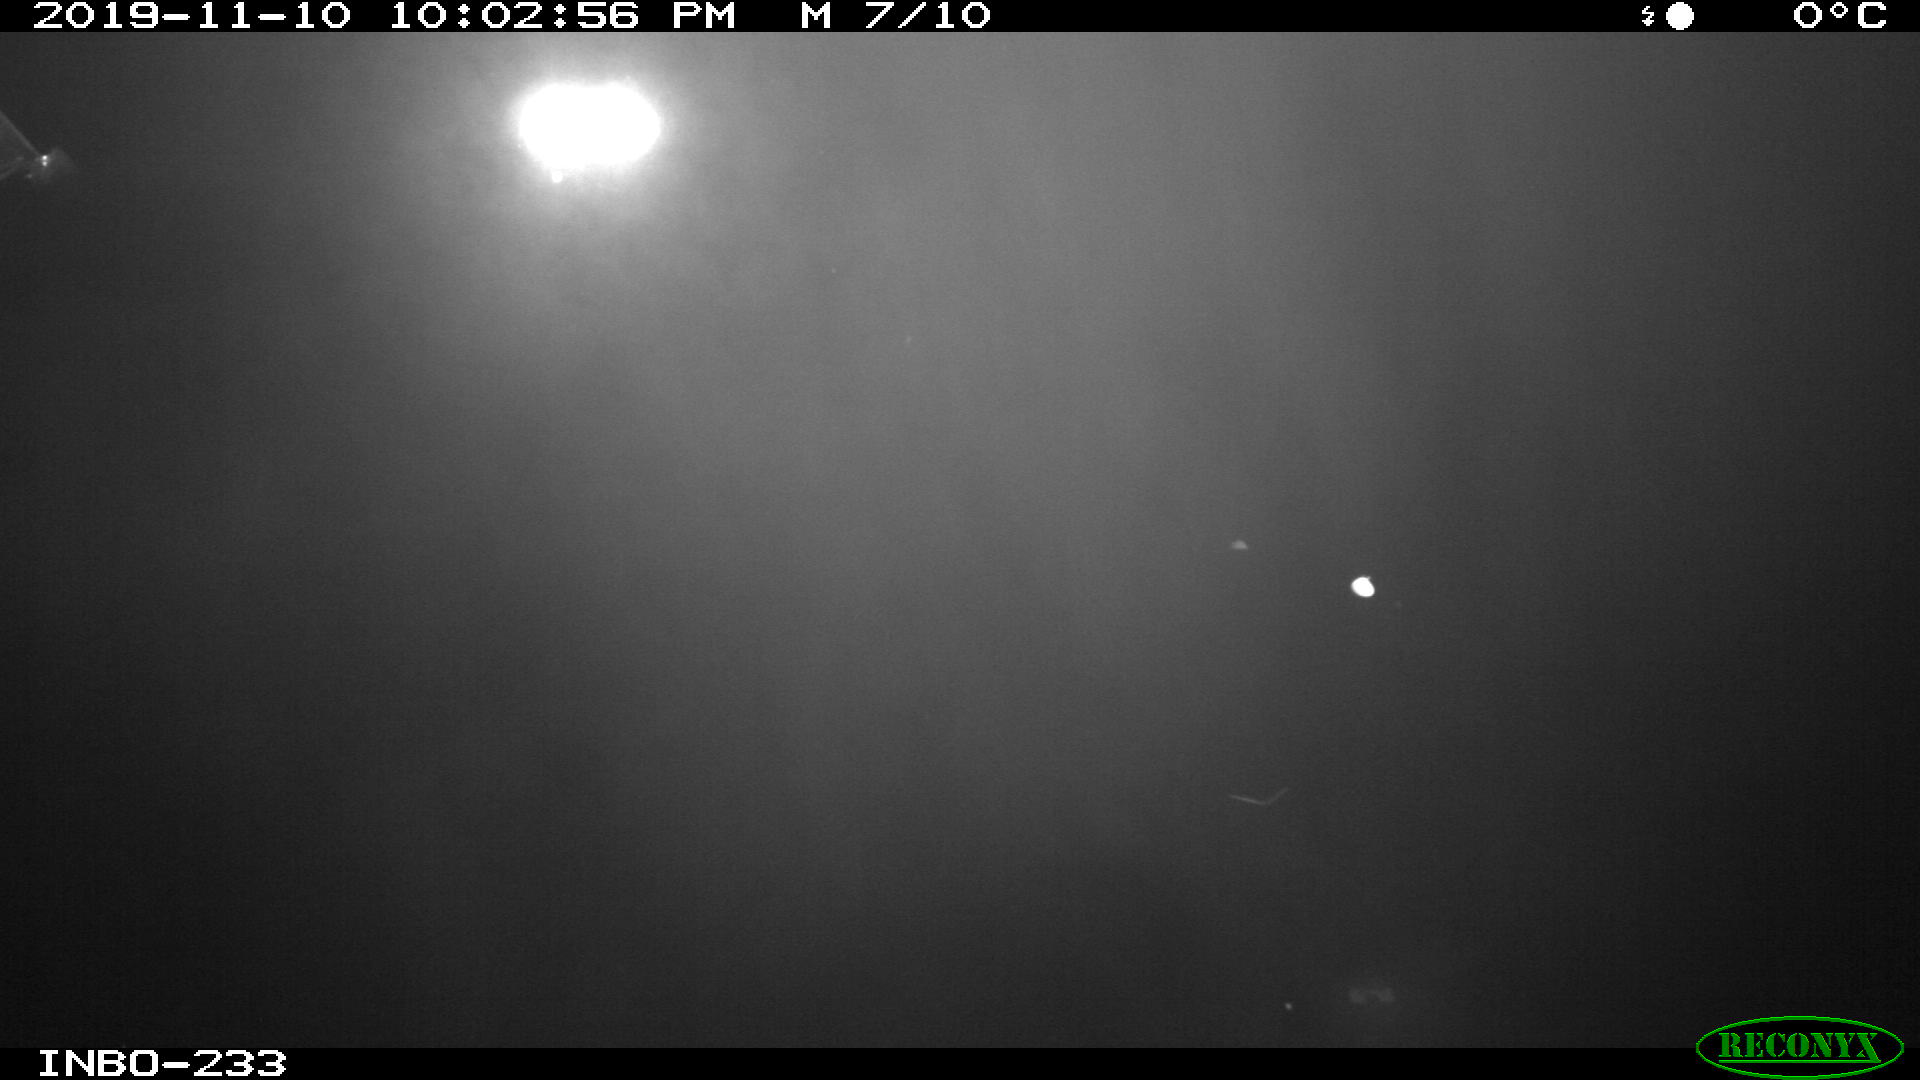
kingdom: Animalia
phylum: Chordata
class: Aves
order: Anseriformes
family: Anatidae
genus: Anas
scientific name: Anas platyrhynchos
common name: Mallard
